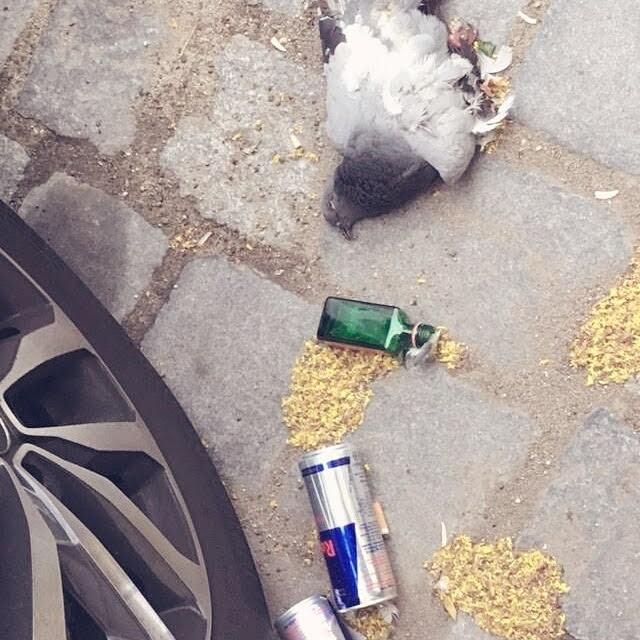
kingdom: Animalia
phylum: Chordata
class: Aves
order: Columbiformes
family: Columbidae
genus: Columba
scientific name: Columba livia
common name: Rock pigeon
